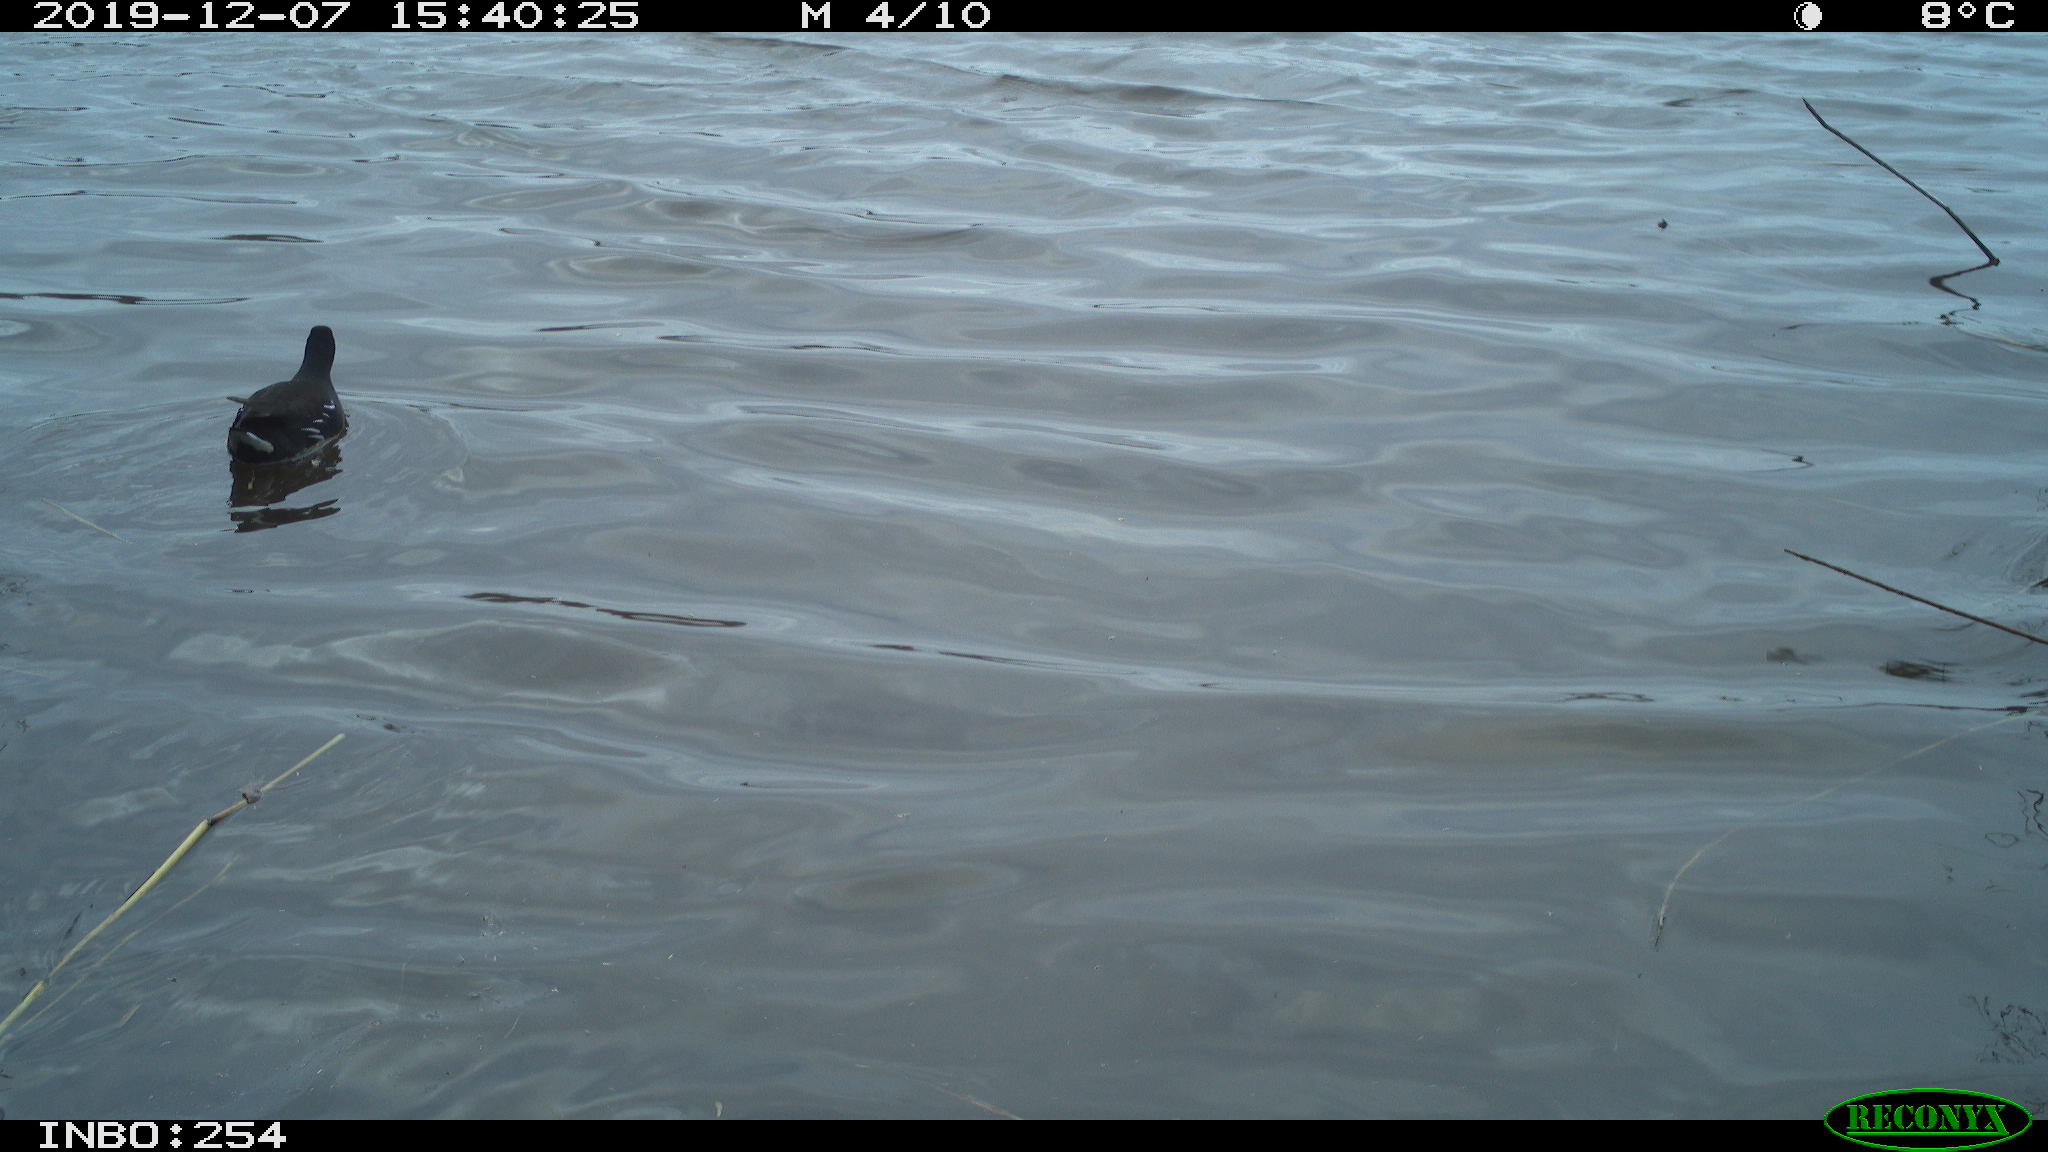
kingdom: Animalia
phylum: Chordata
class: Aves
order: Gruiformes
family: Rallidae
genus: Gallinula
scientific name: Gallinula chloropus
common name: Common moorhen
